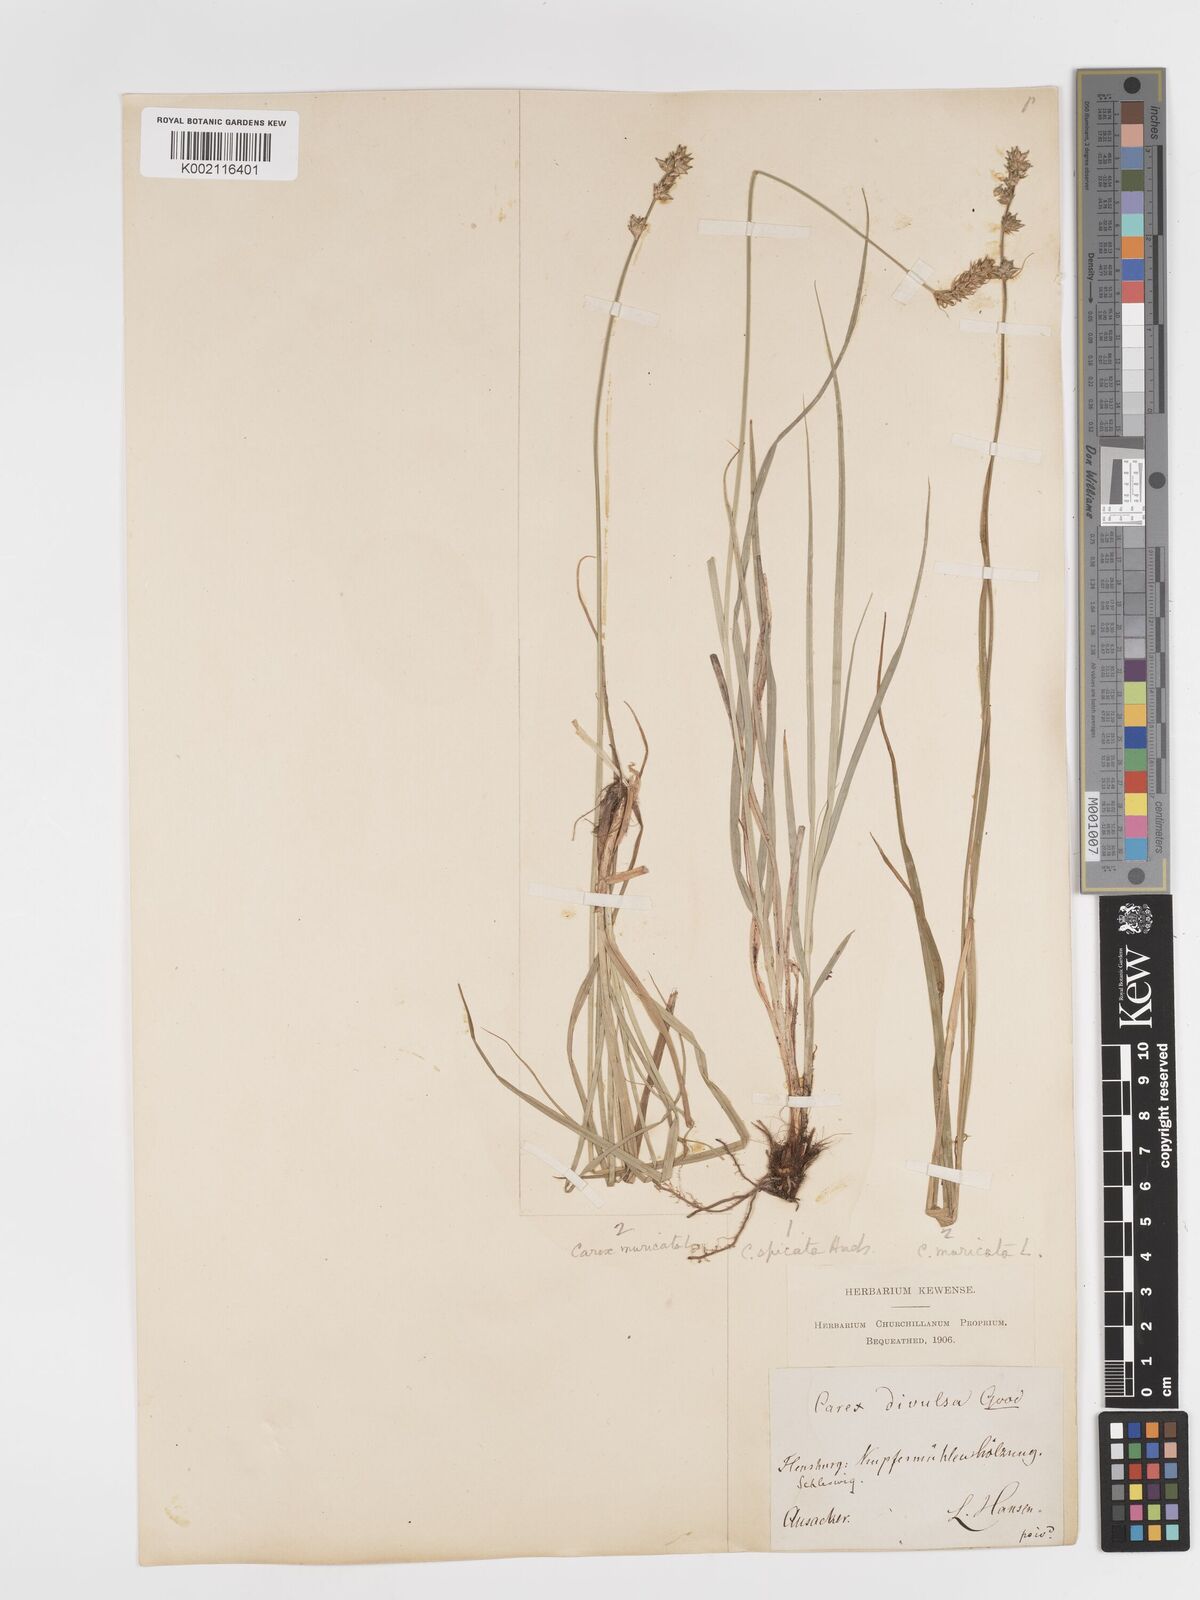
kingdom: Plantae
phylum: Tracheophyta
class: Liliopsida
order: Poales
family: Cyperaceae
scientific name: Cyperaceae
